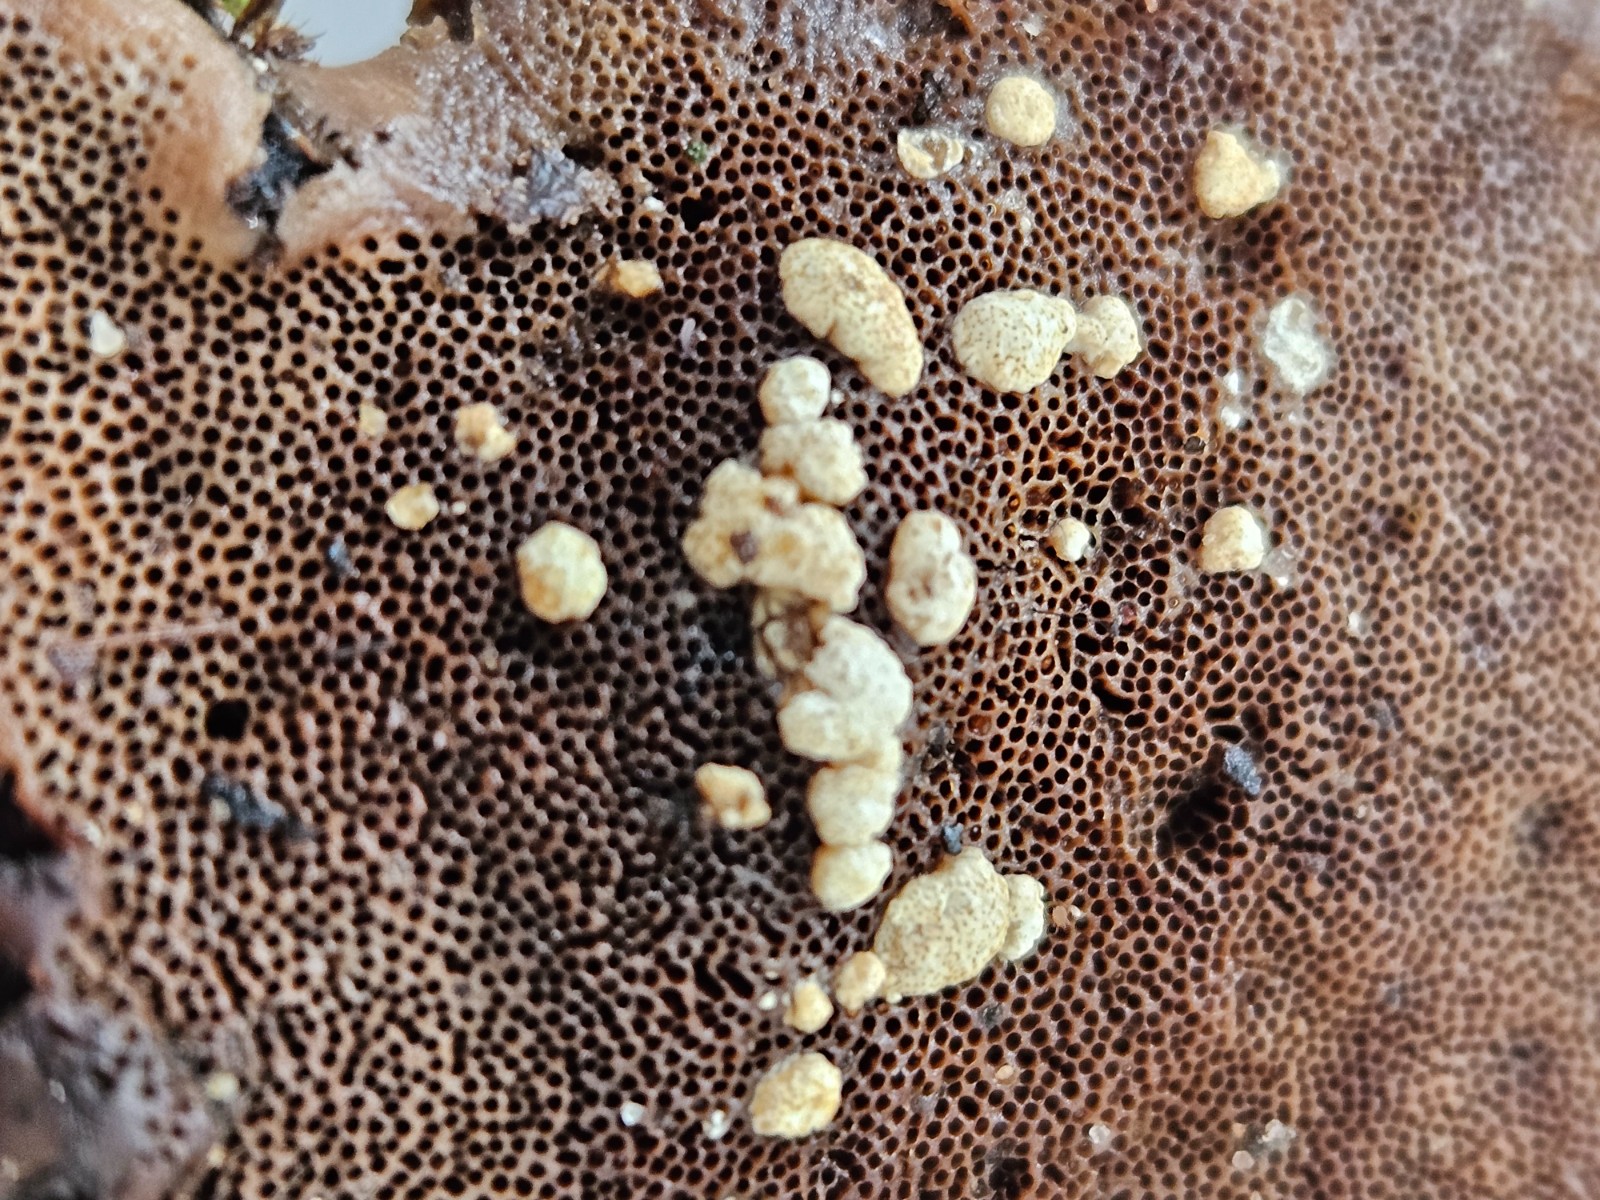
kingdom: Fungi
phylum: Ascomycota
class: Sordariomycetes
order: Hypocreales
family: Hypocreaceae
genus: Trichoderma
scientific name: Trichoderma
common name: kødkerne
